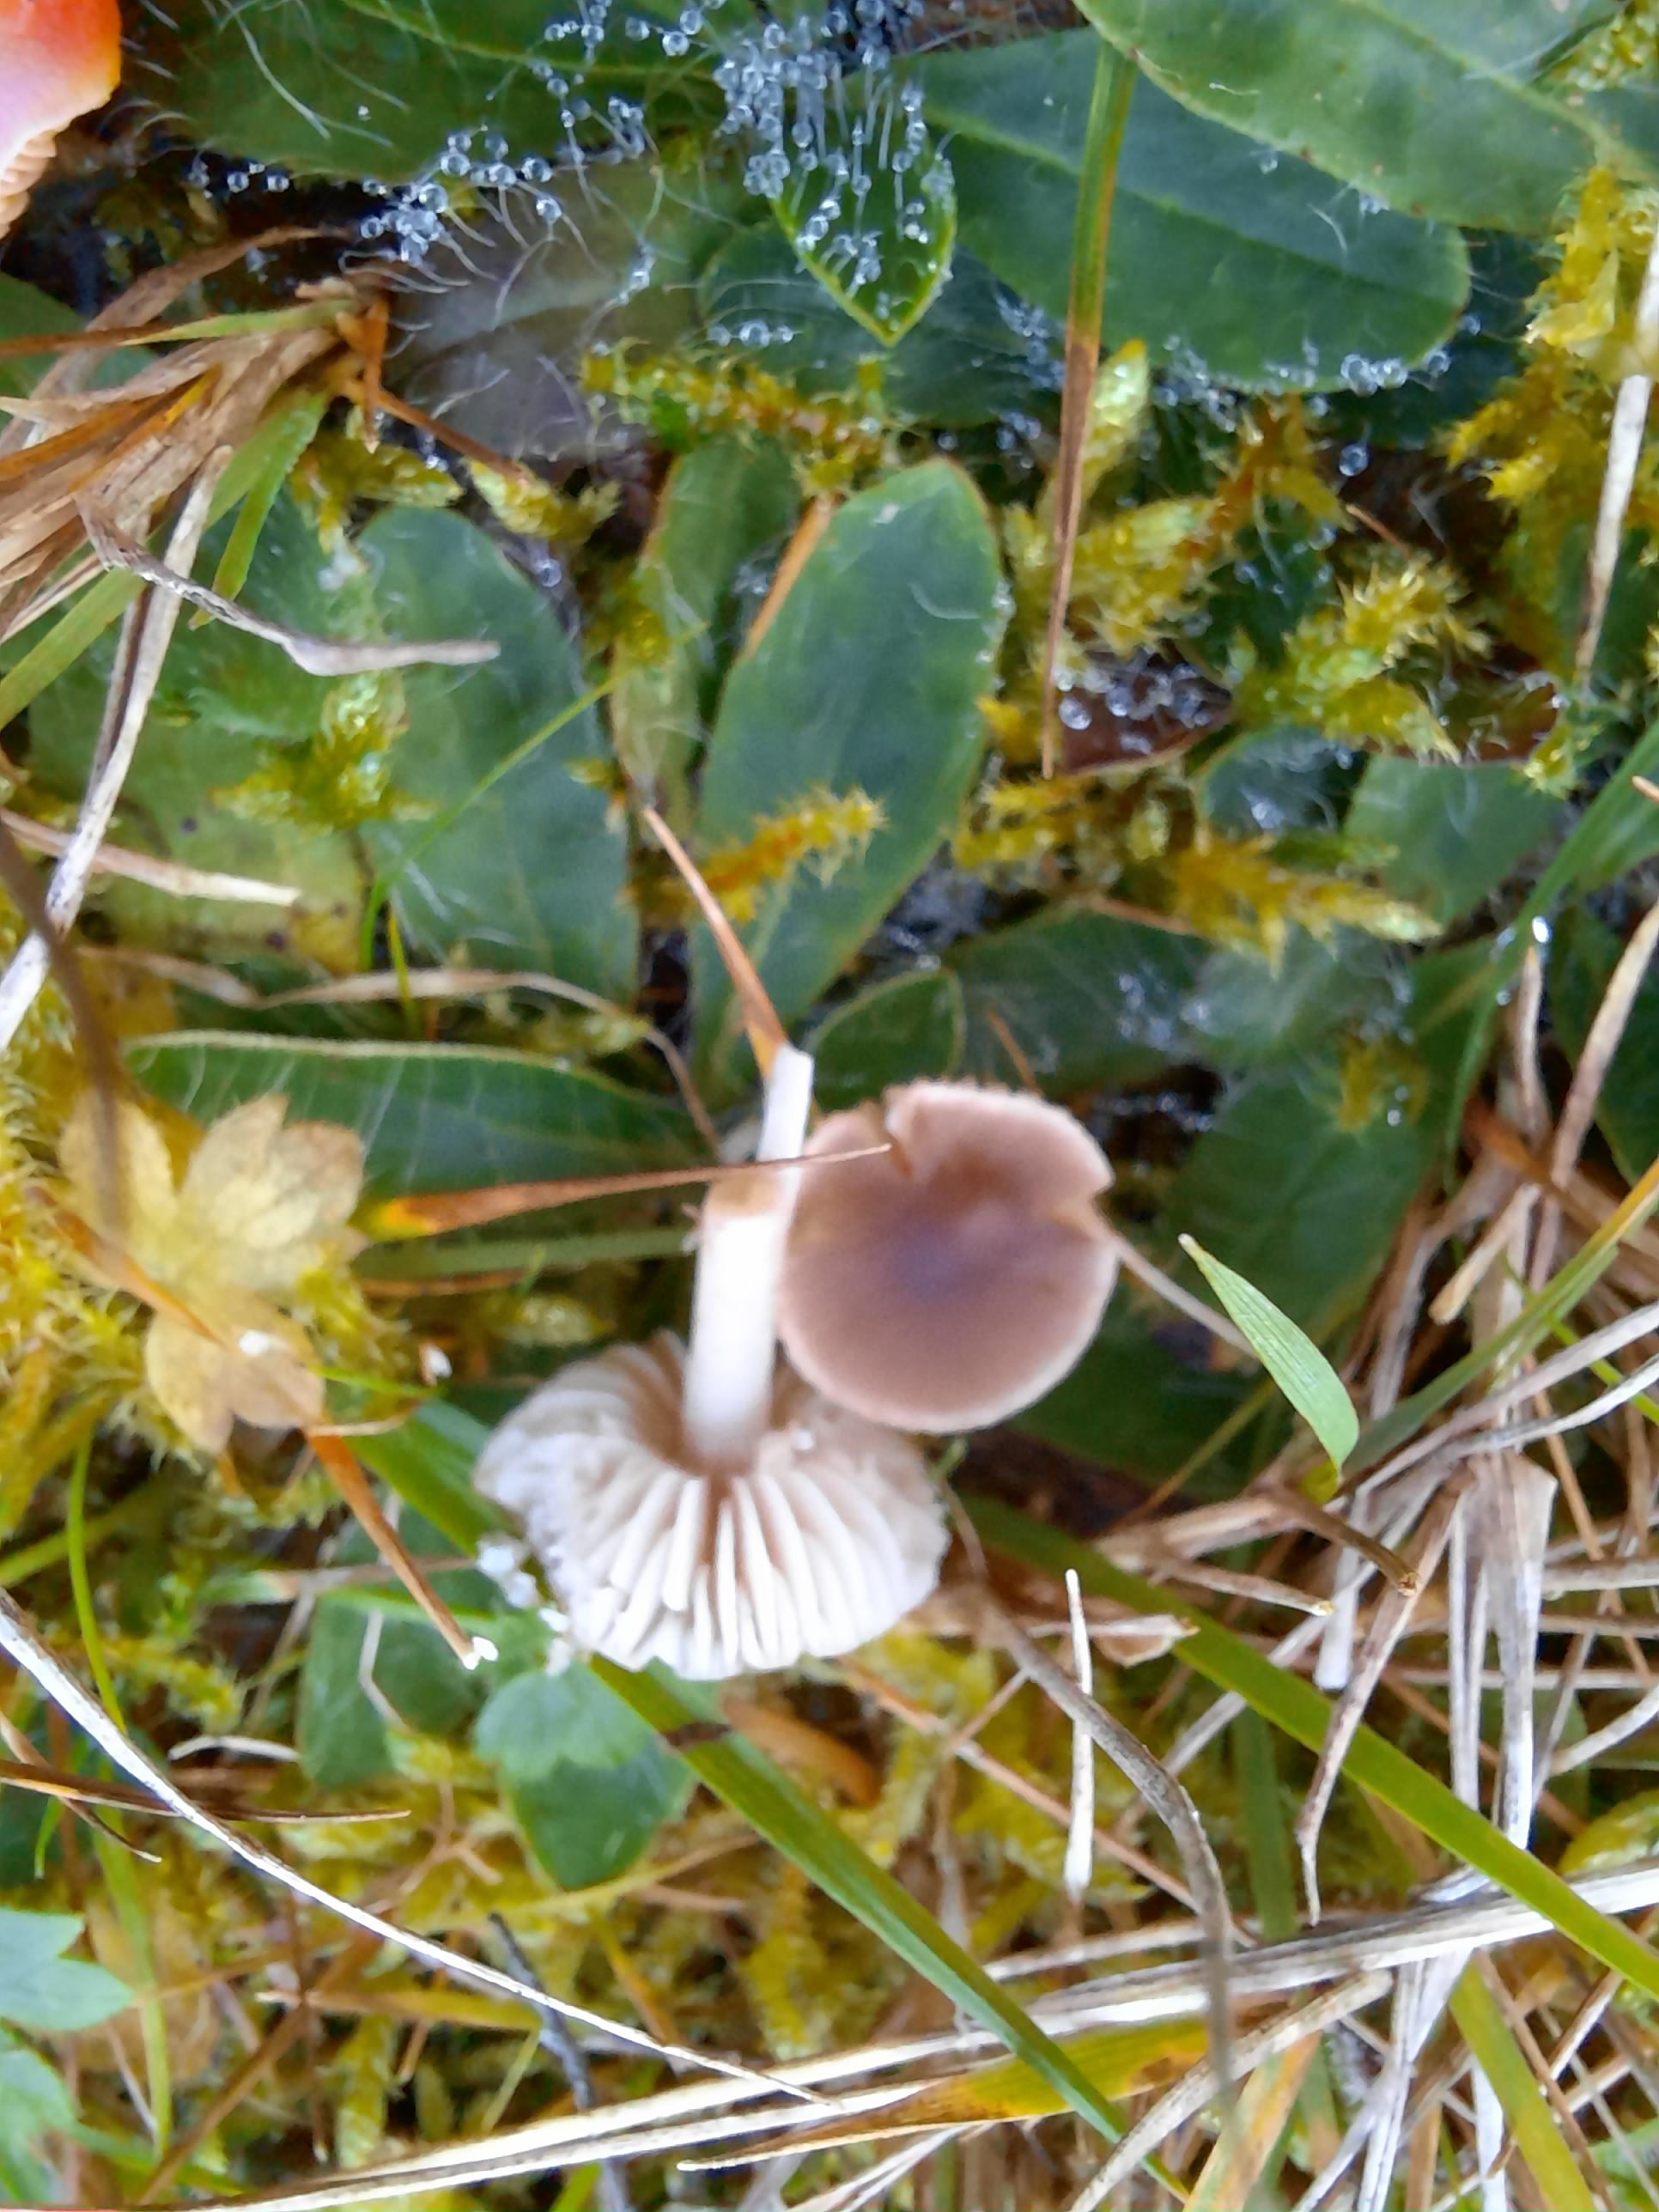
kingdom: Fungi
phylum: Basidiomycota
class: Agaricomycetes
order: Agaricales
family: Tricholomataceae
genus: Dermoloma
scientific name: Dermoloma cuneifolium
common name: eng-nonnehat
